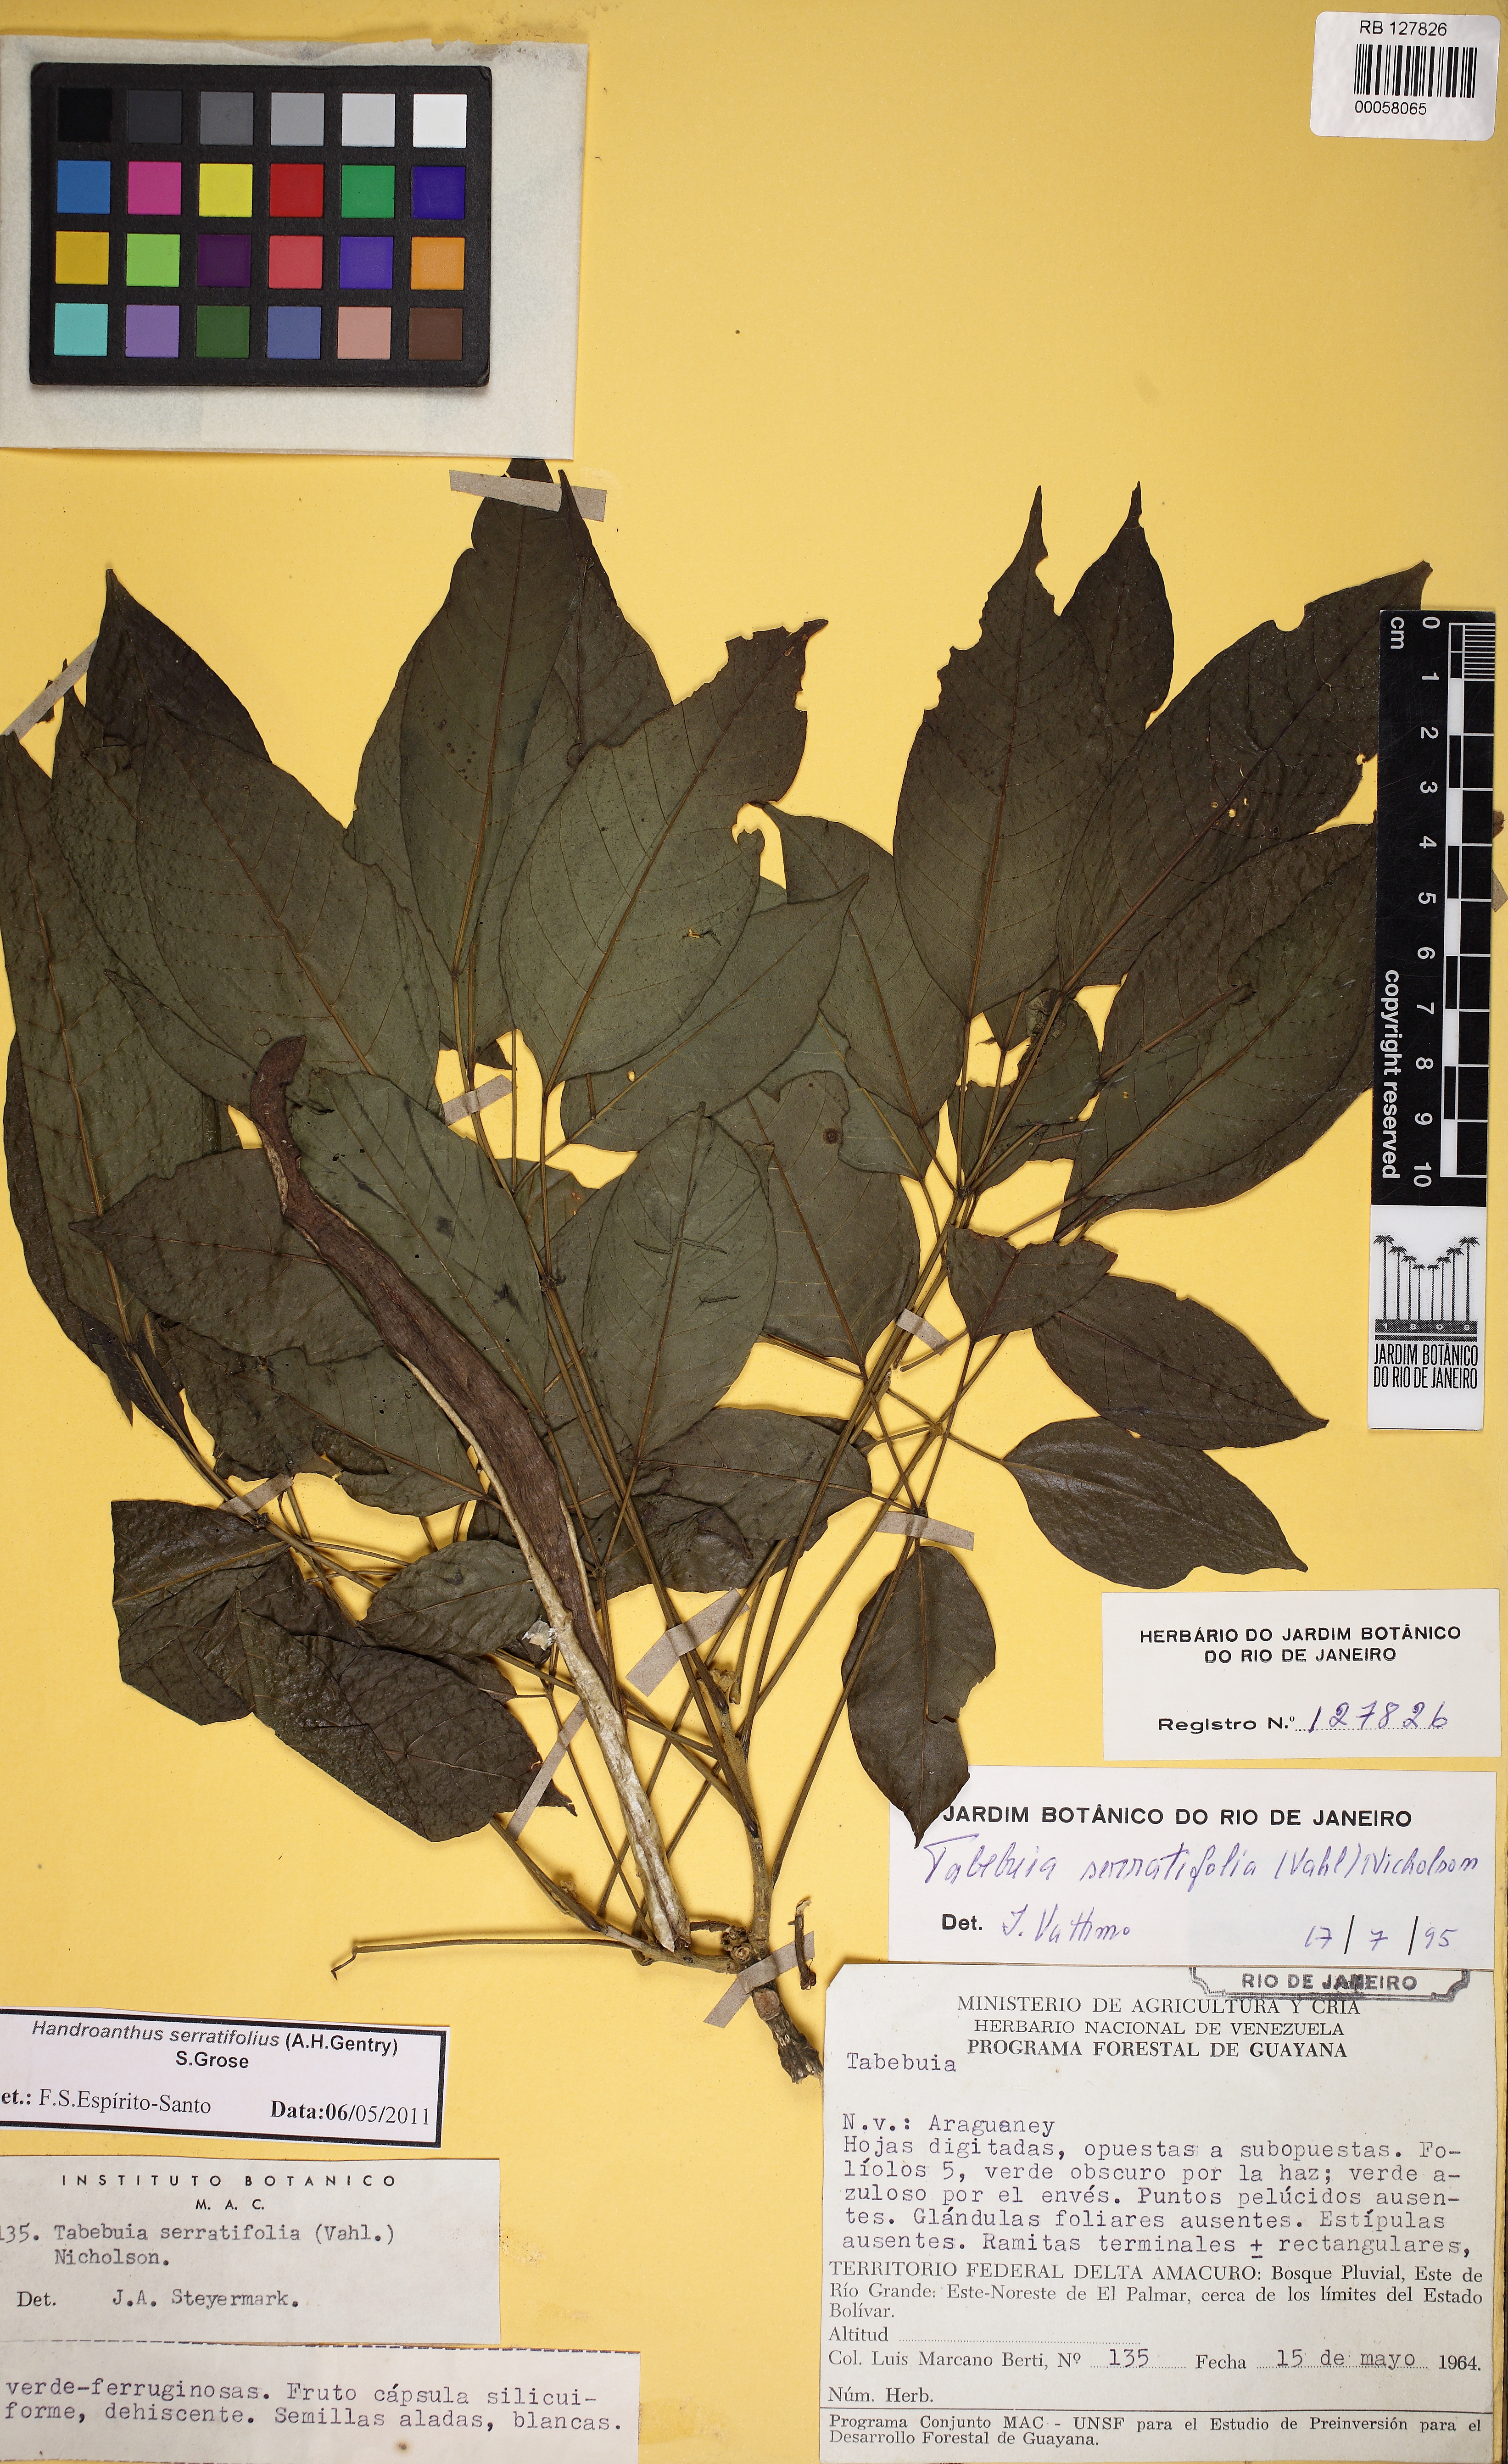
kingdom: Plantae
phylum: Tracheophyta
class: Magnoliopsida
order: Lamiales
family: Bignoniaceae
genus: Handroanthus
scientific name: Handroanthus serratifolius
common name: Yellow ipe
